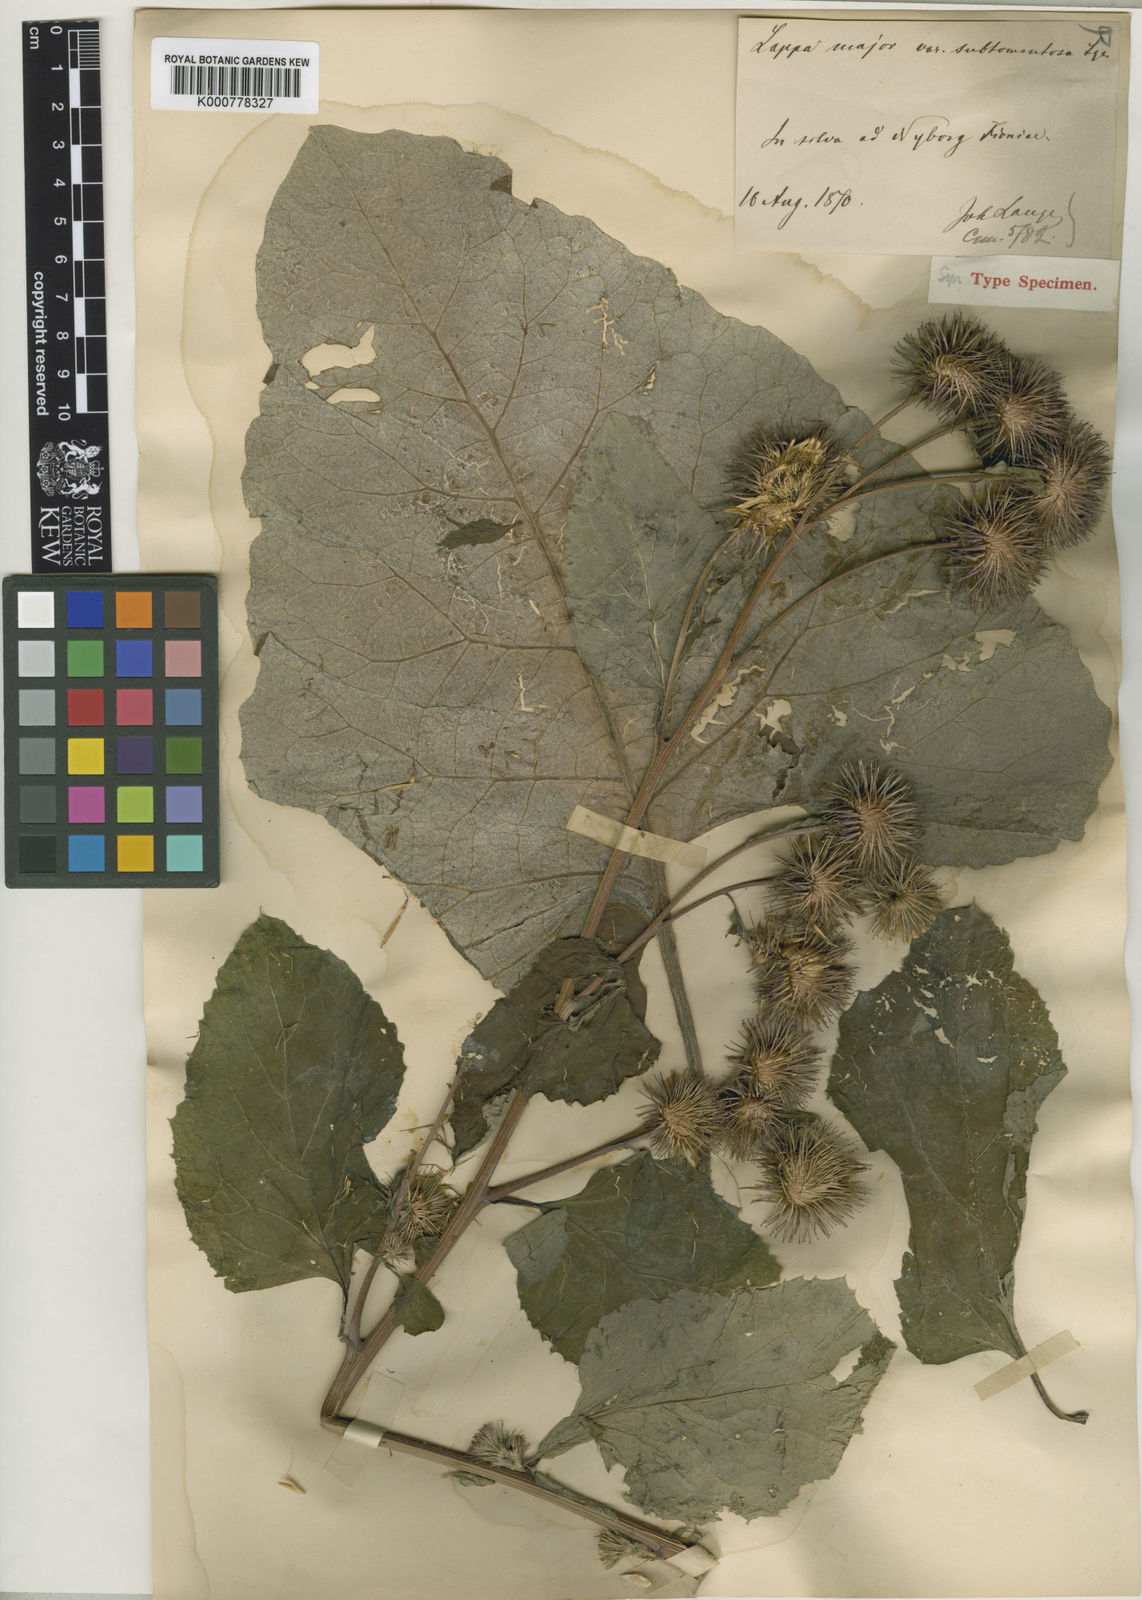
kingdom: Plantae
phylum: Tracheophyta
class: Magnoliopsida
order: Asterales
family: Asteraceae
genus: Arctium
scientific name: Arctium lappa
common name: Greater burdock
